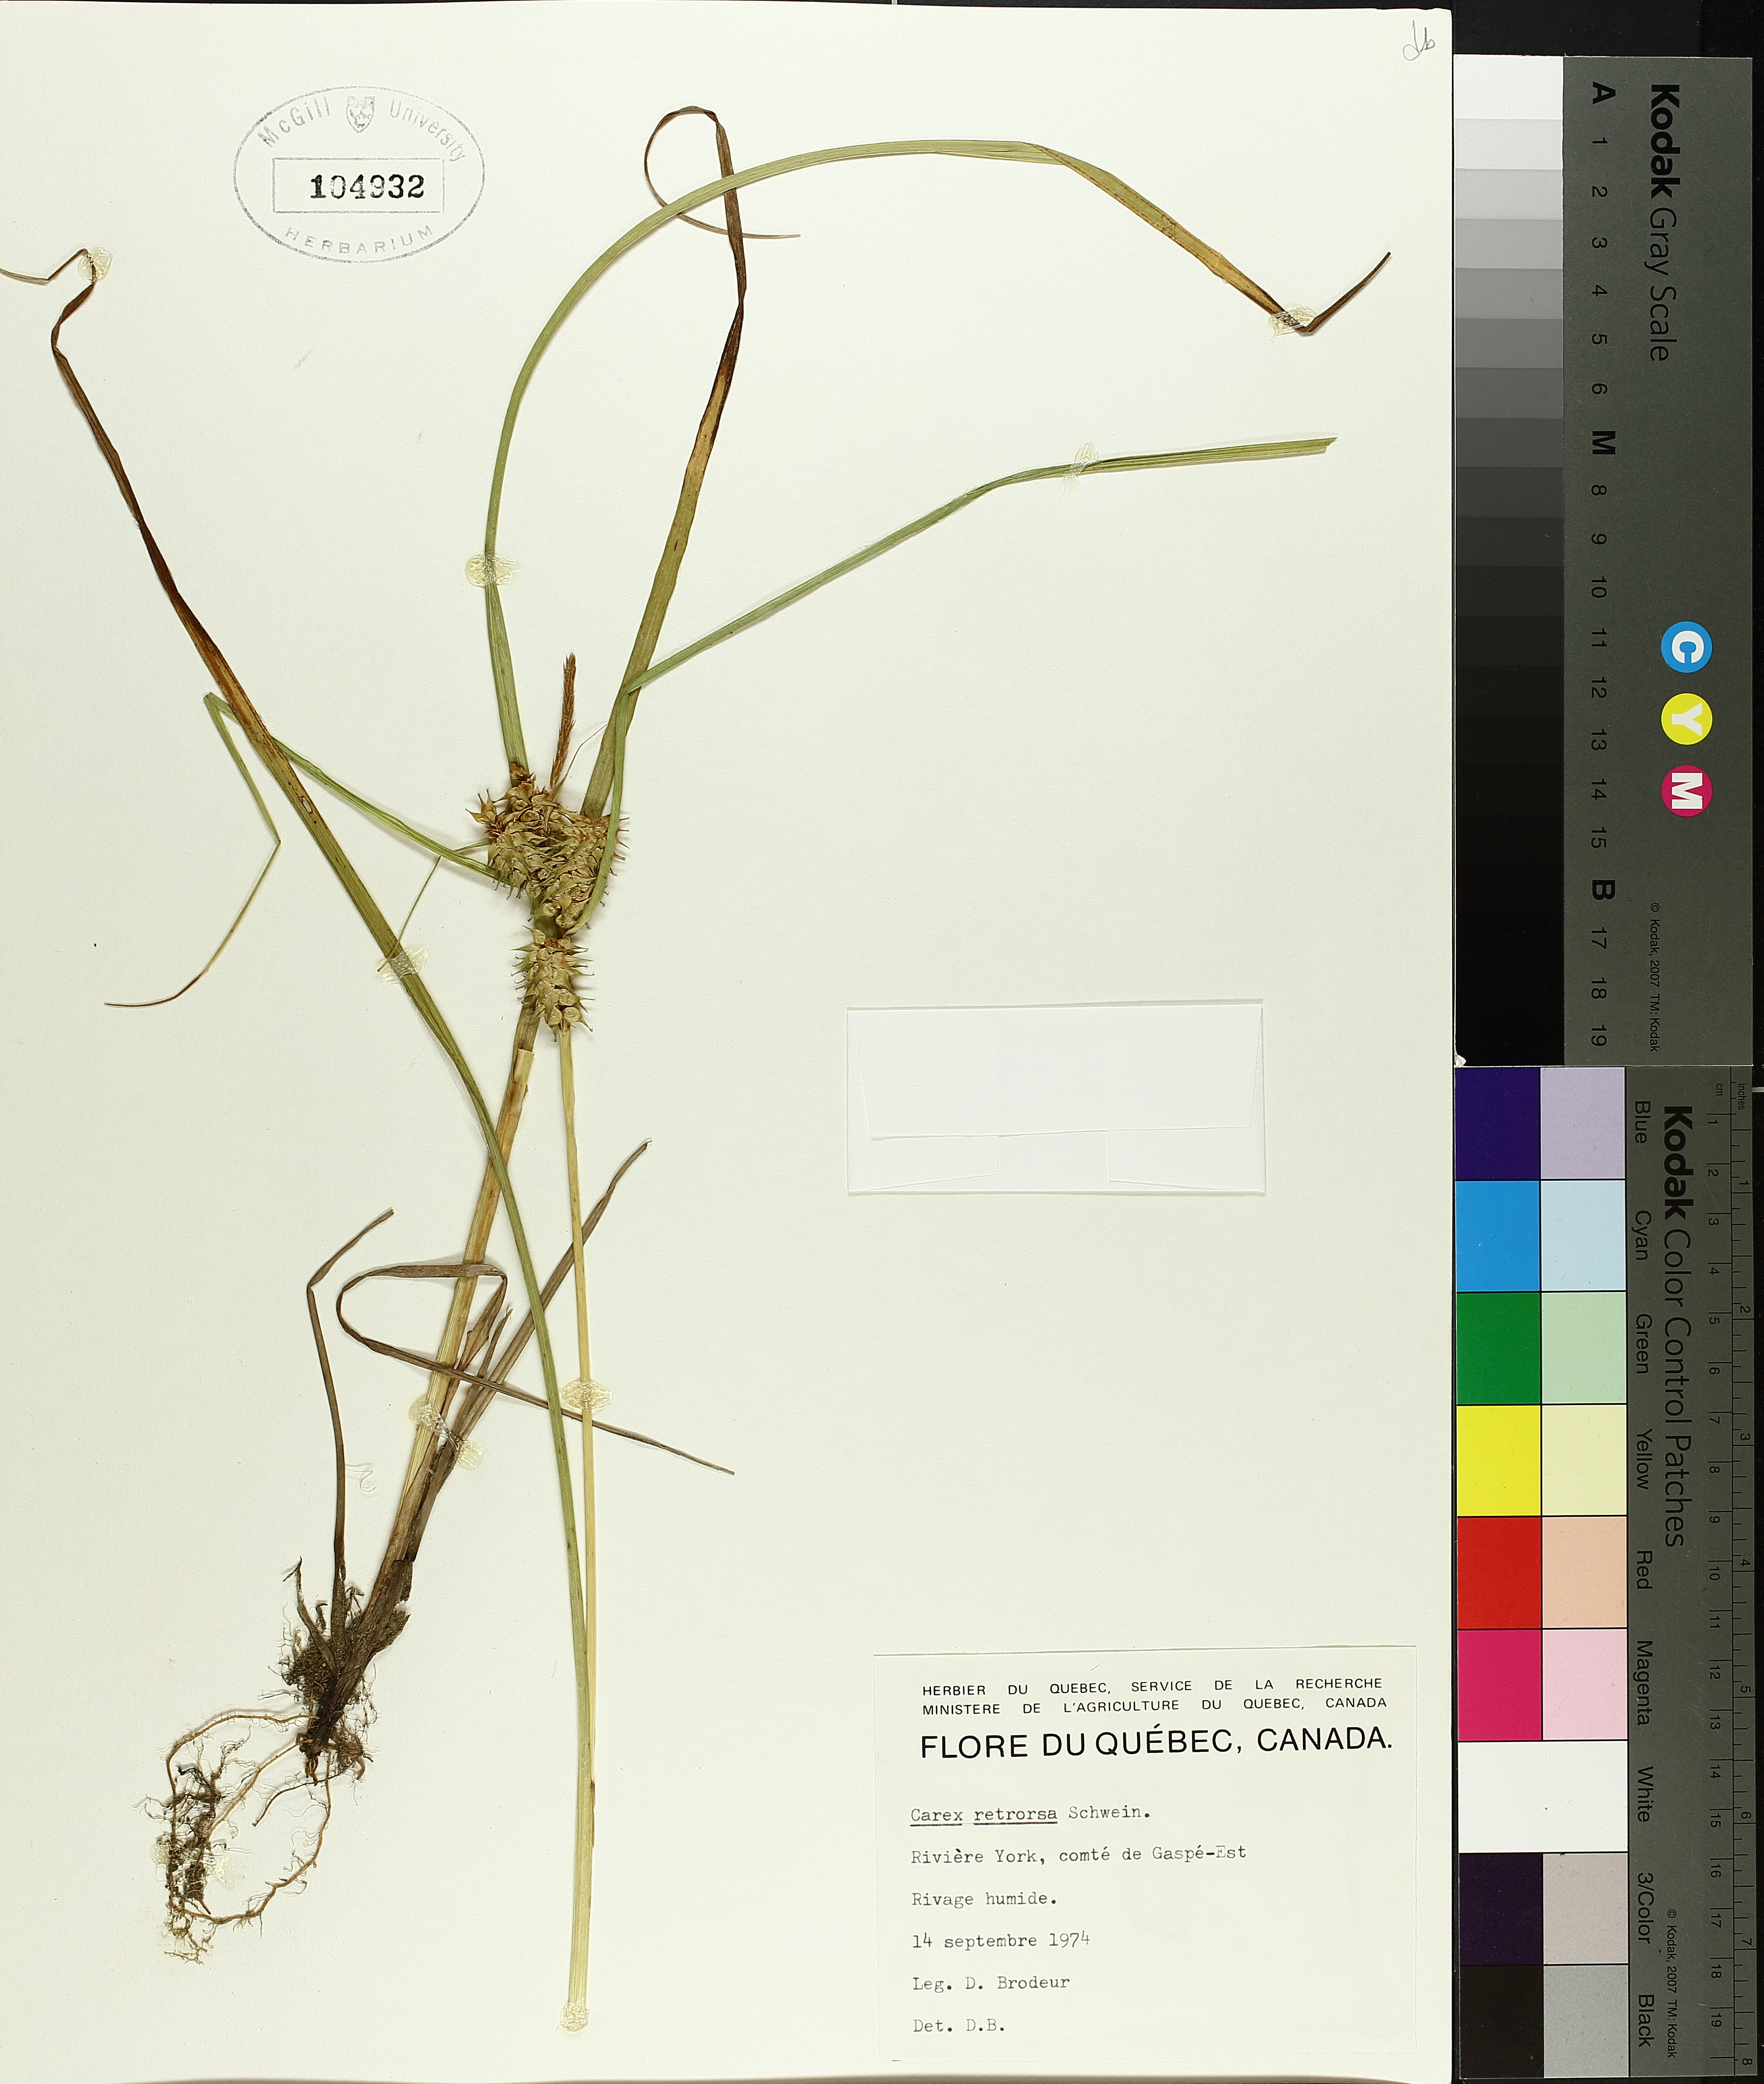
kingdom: Plantae
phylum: Tracheophyta
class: Liliopsida
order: Poales
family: Cyperaceae
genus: Carex
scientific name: Carex retrorsa
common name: Knot-sheath sedge
